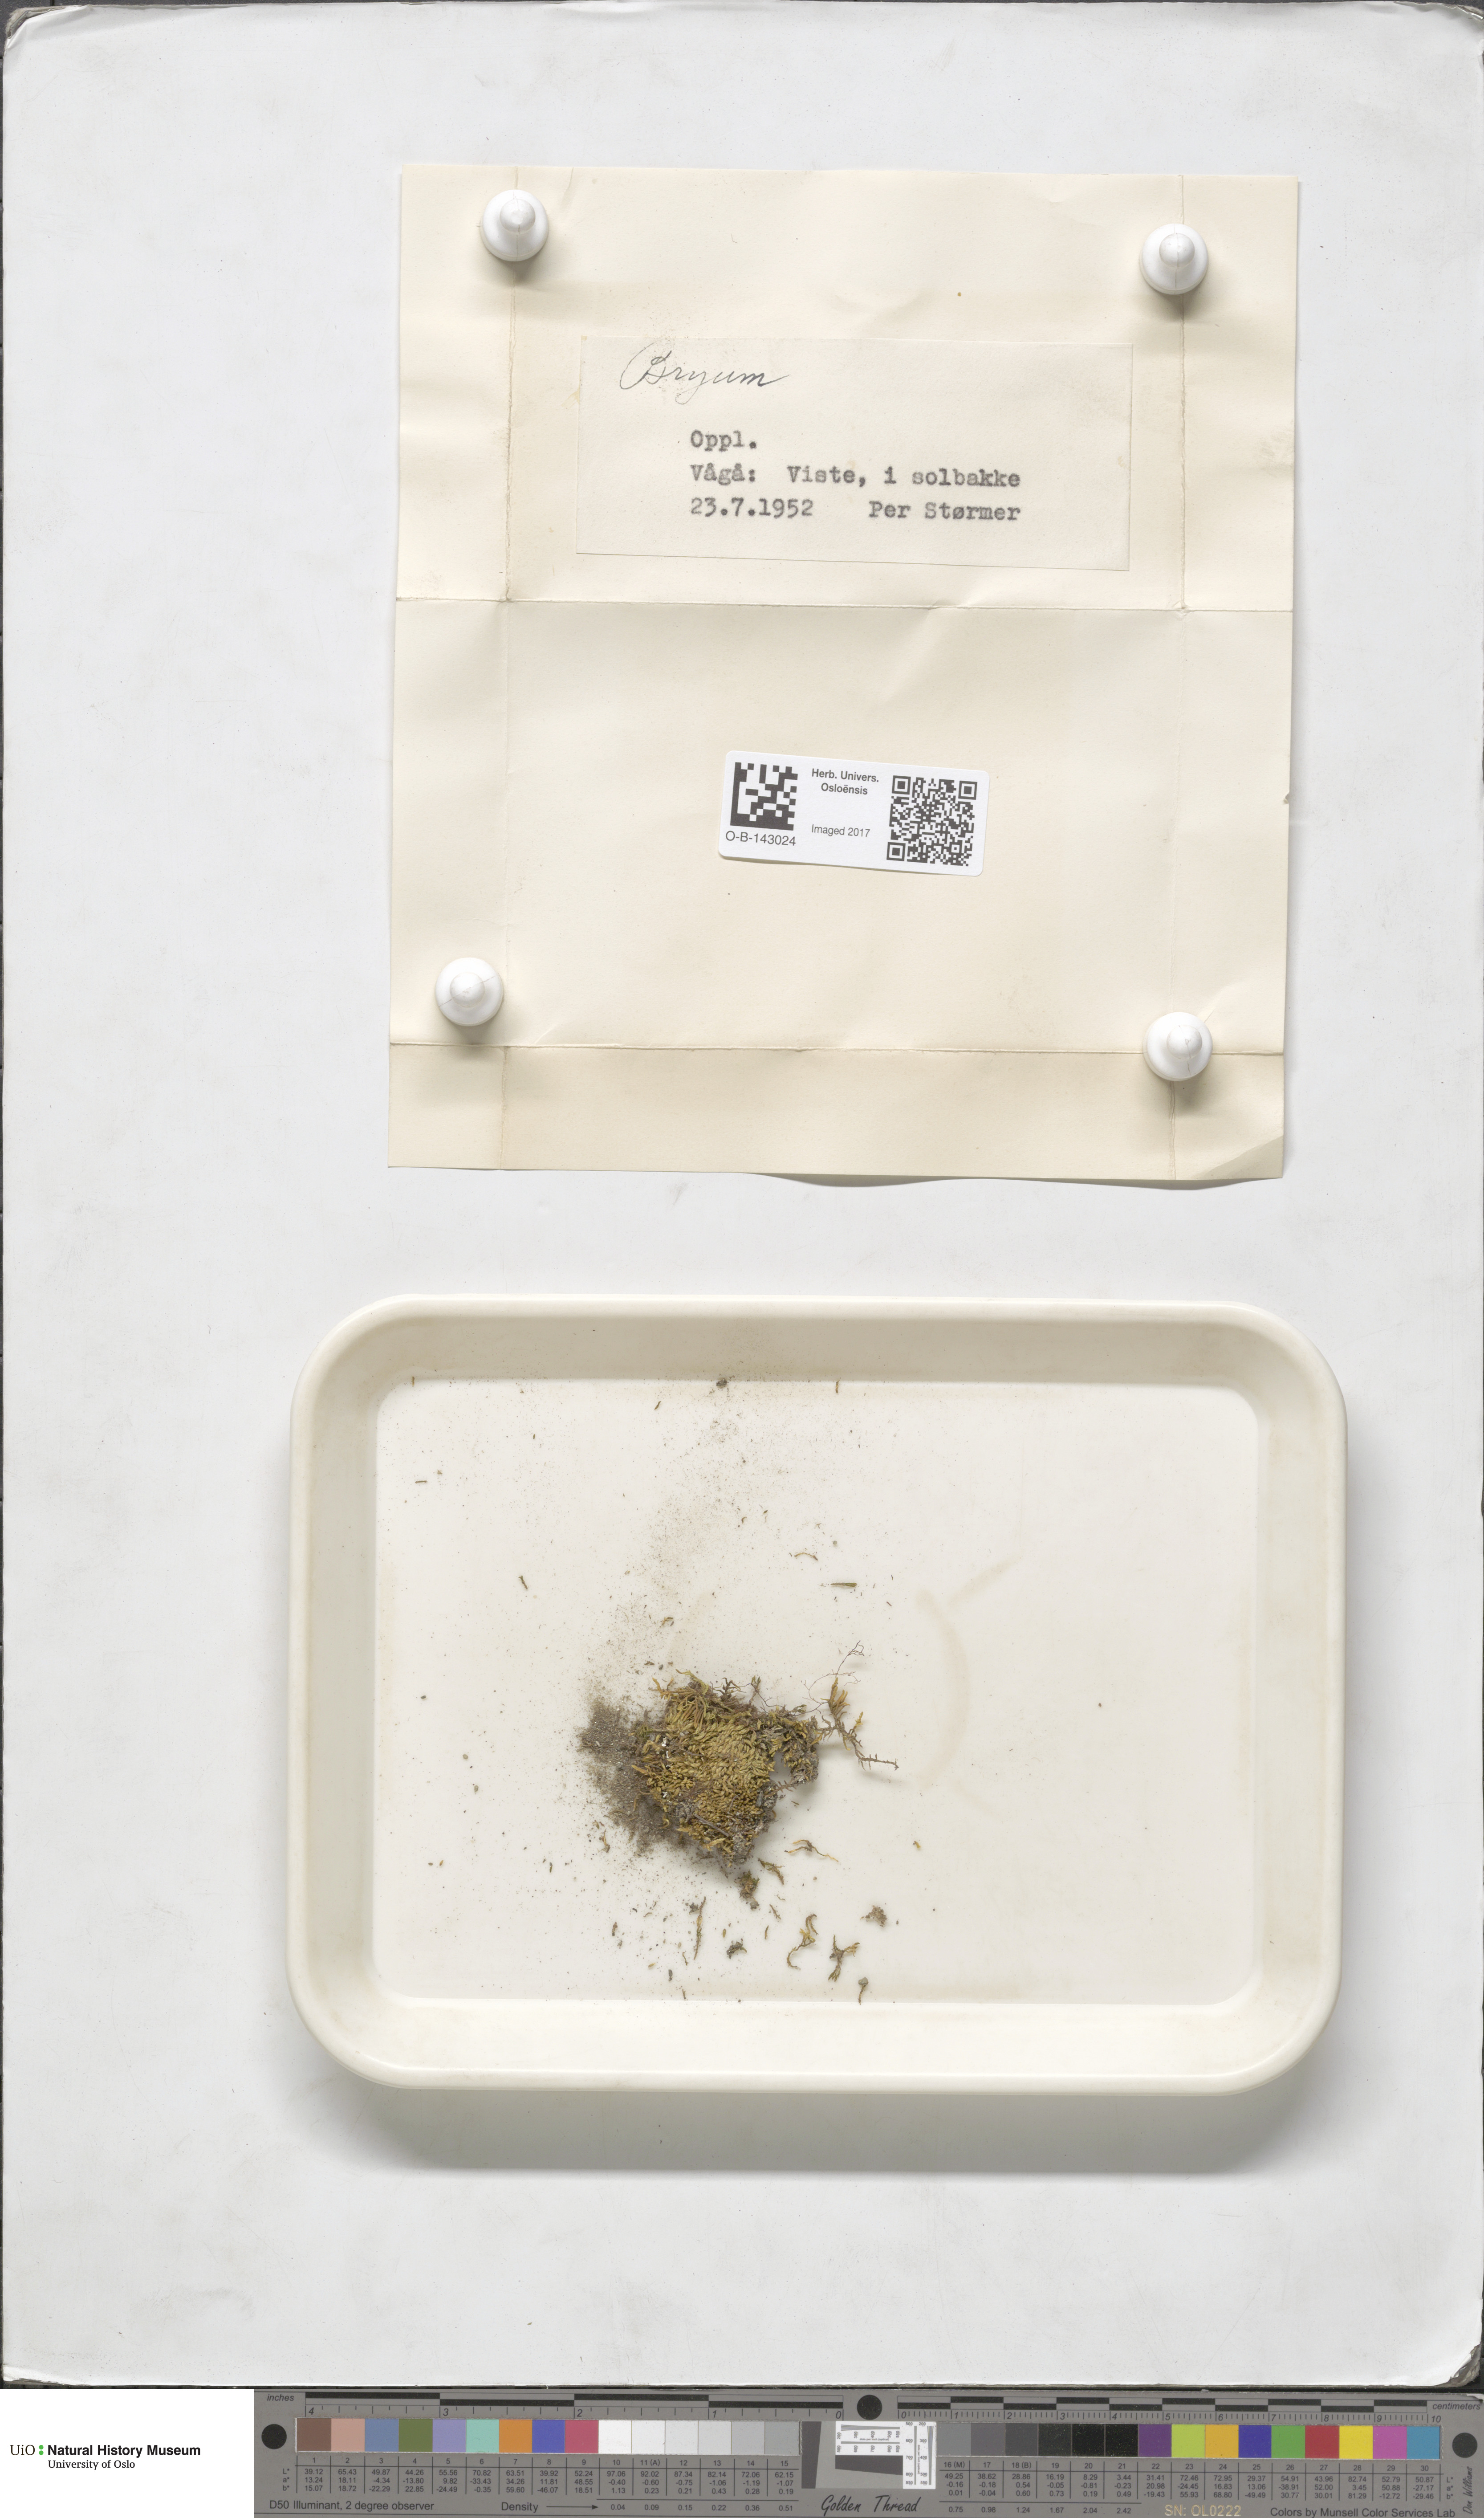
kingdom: Plantae
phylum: Bryophyta
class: Bryopsida
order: Bryales
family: Bryaceae
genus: Bryum
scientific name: Bryum
